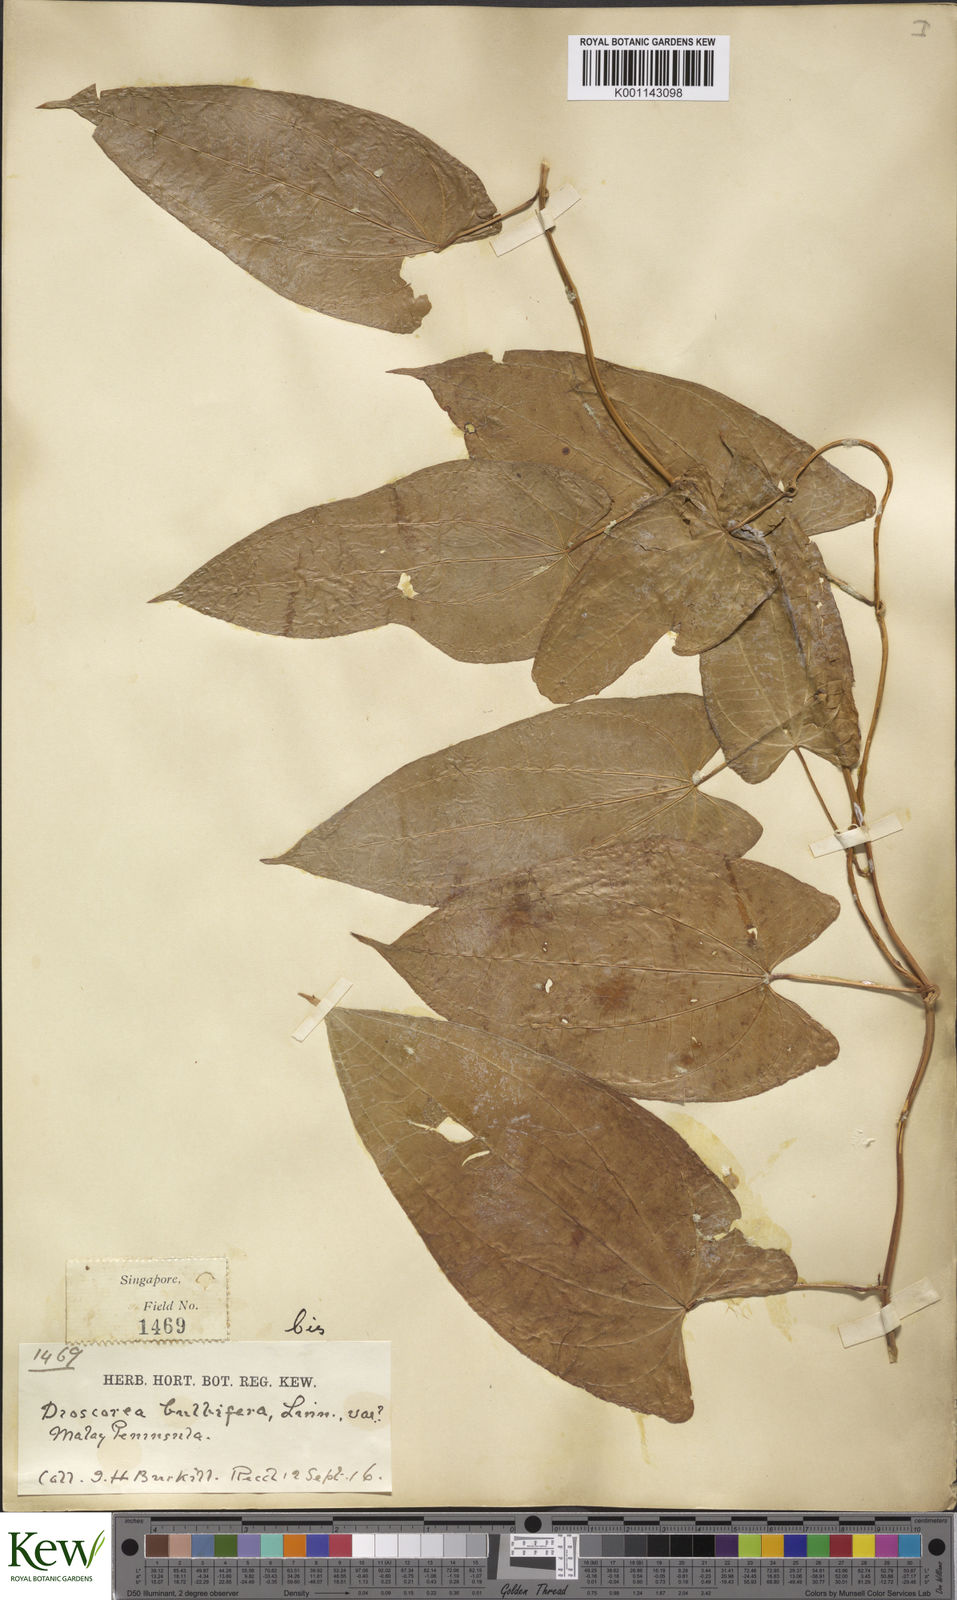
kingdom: Plantae
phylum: Tracheophyta
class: Liliopsida
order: Dioscoreales
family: Dioscoreaceae
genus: Dioscorea
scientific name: Dioscorea bulbifera
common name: Air yam
